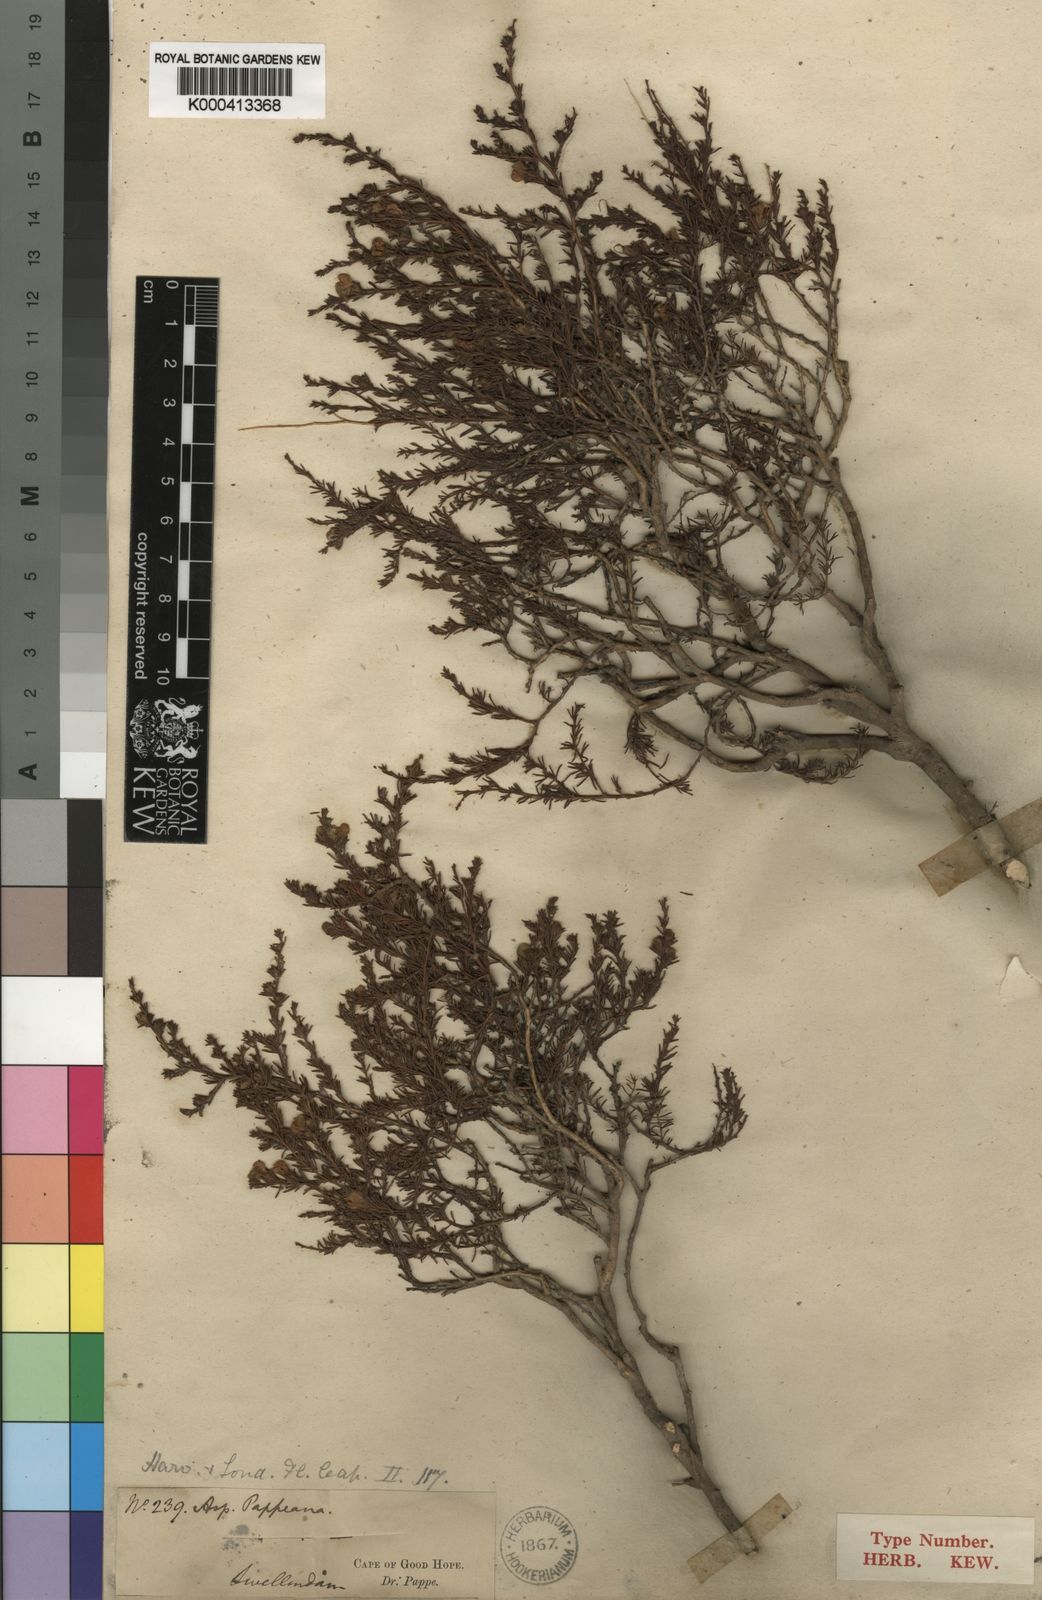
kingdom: Plantae
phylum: Tracheophyta
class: Magnoliopsida
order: Fabales
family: Fabaceae
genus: Aspalathus
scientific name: Aspalathus opaca
